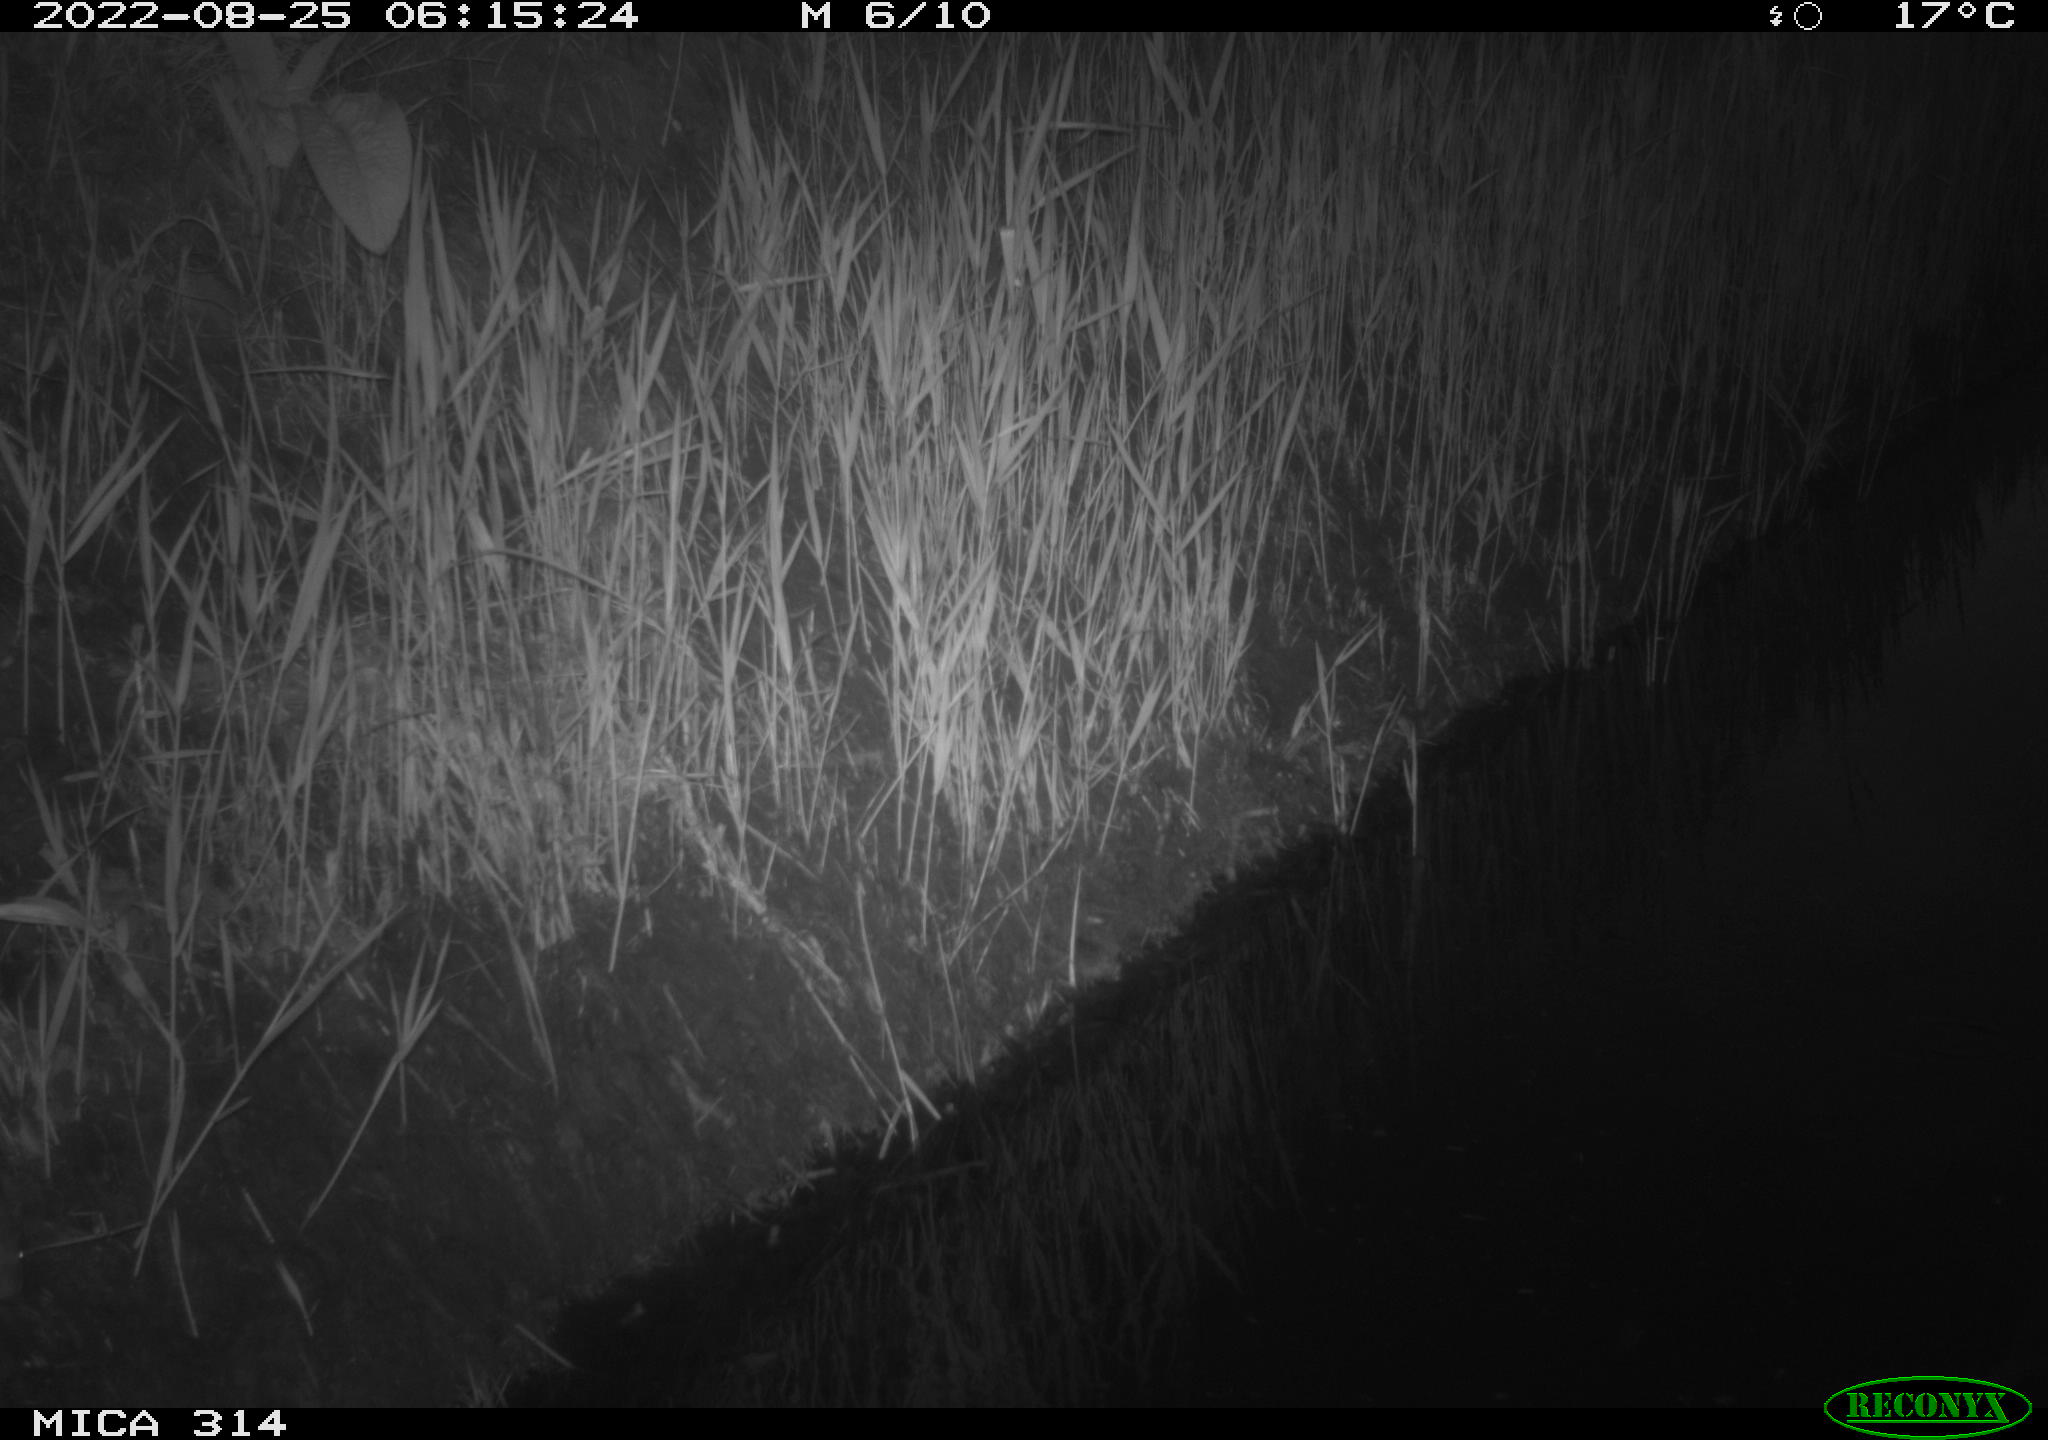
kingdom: Animalia
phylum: Chordata
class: Mammalia
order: Rodentia
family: Muridae
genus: Rattus
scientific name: Rattus norvegicus
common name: Brown rat
